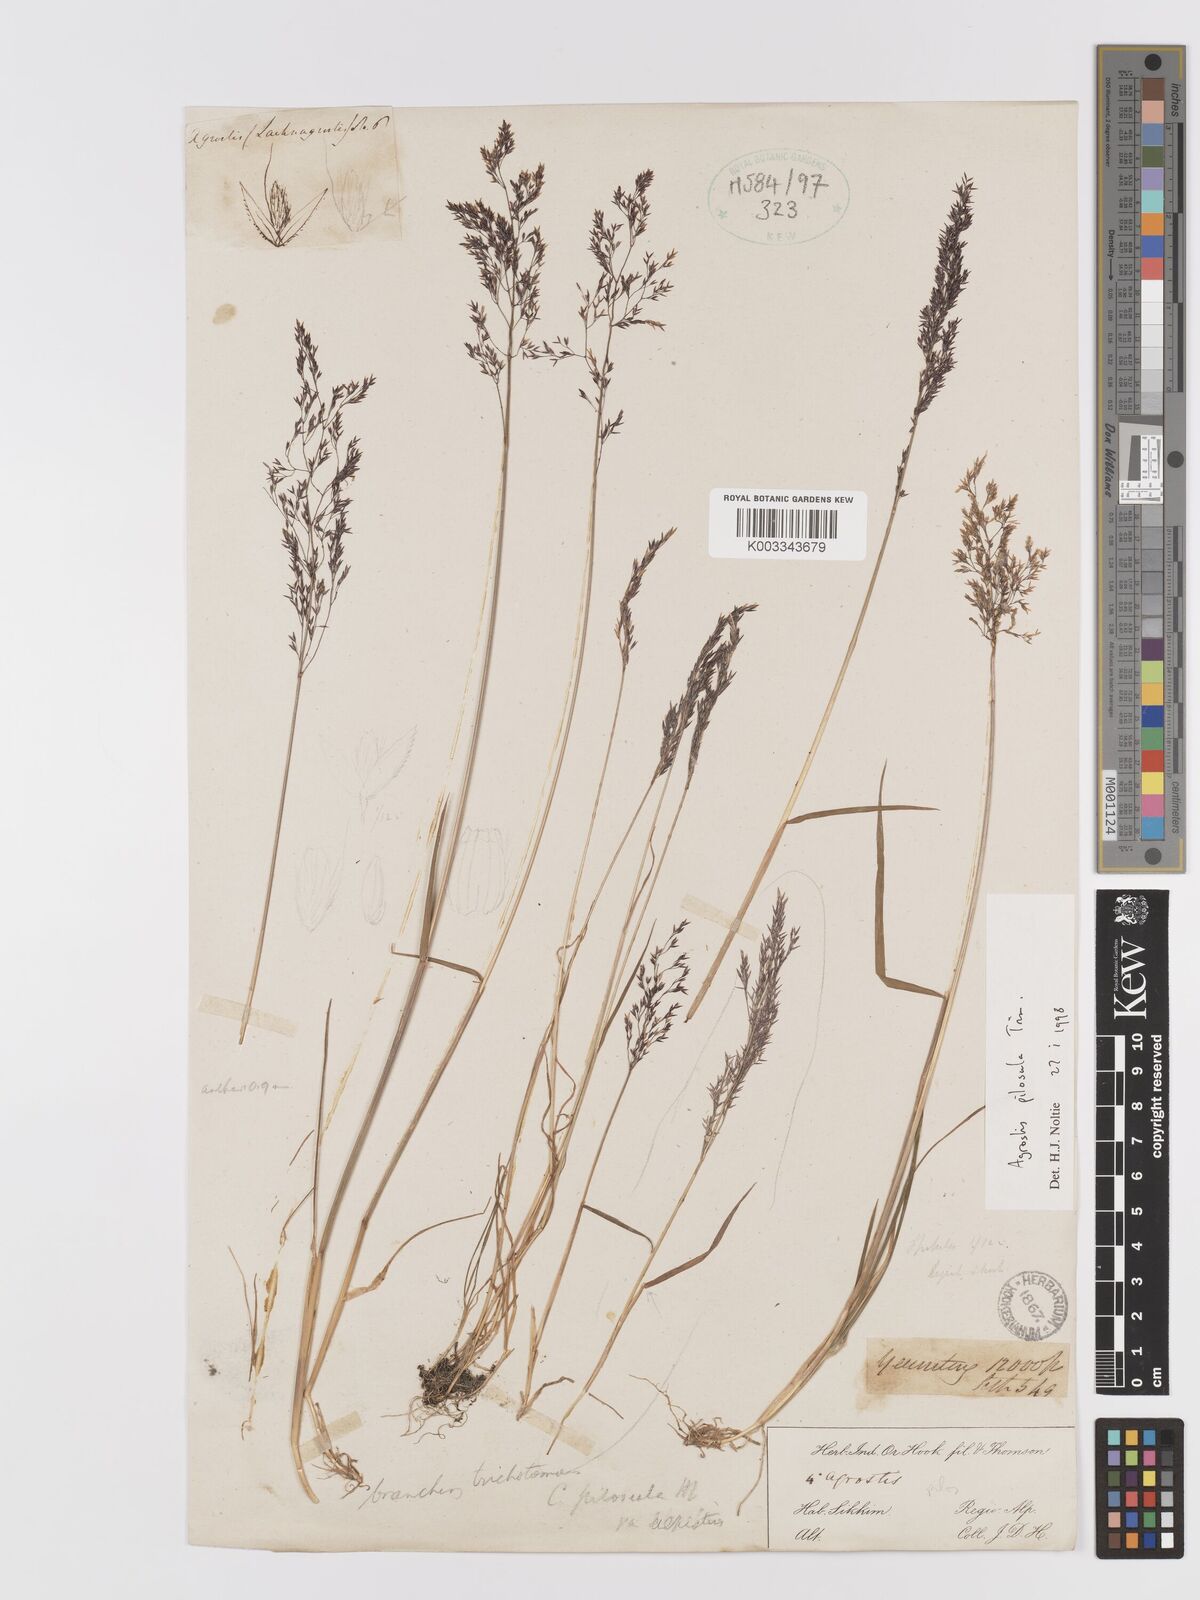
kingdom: Plantae
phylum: Tracheophyta
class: Liliopsida
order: Poales
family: Poaceae
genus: Agrostis
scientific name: Agrostis pilosula
